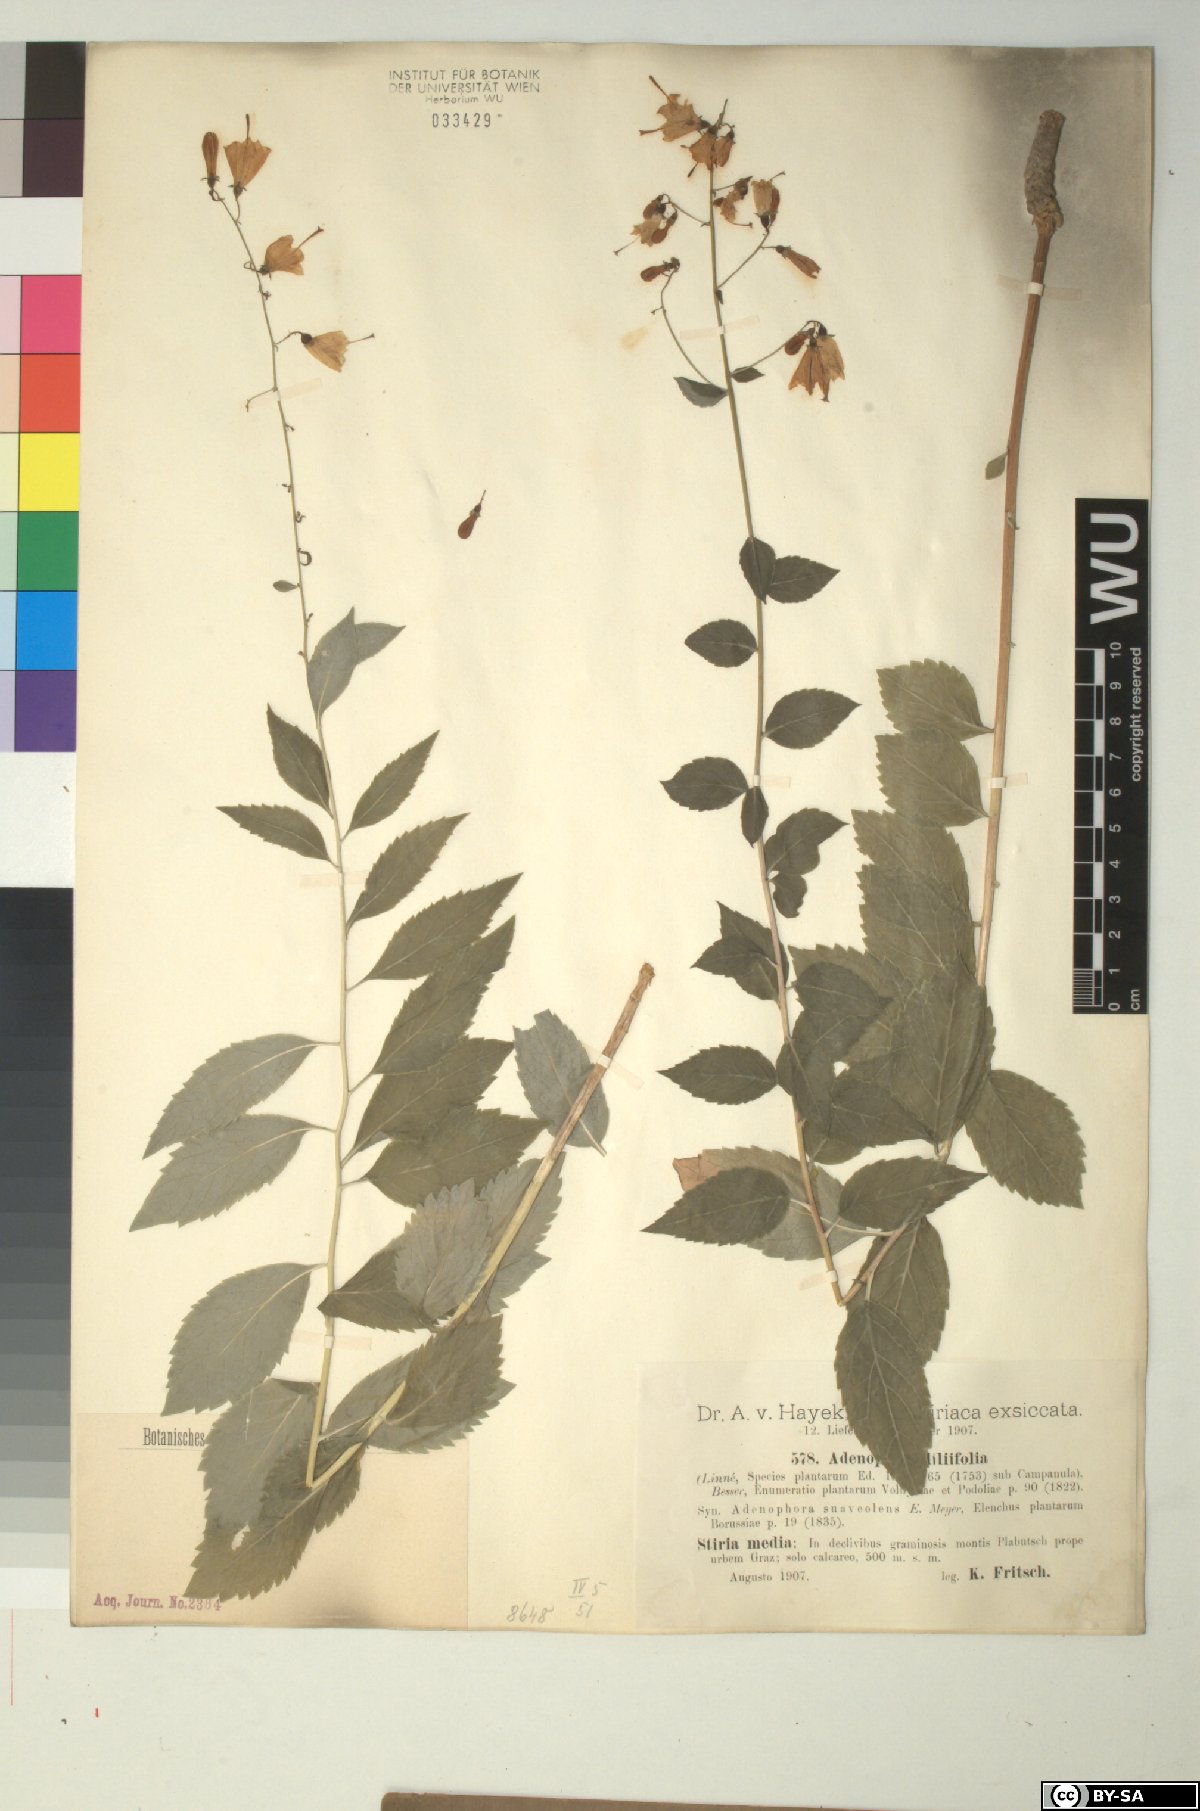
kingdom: Plantae
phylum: Tracheophyta
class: Magnoliopsida
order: Asterales
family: Campanulaceae
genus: Adenophora
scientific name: Adenophora liliifolia
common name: Lilyleaf ladybells
